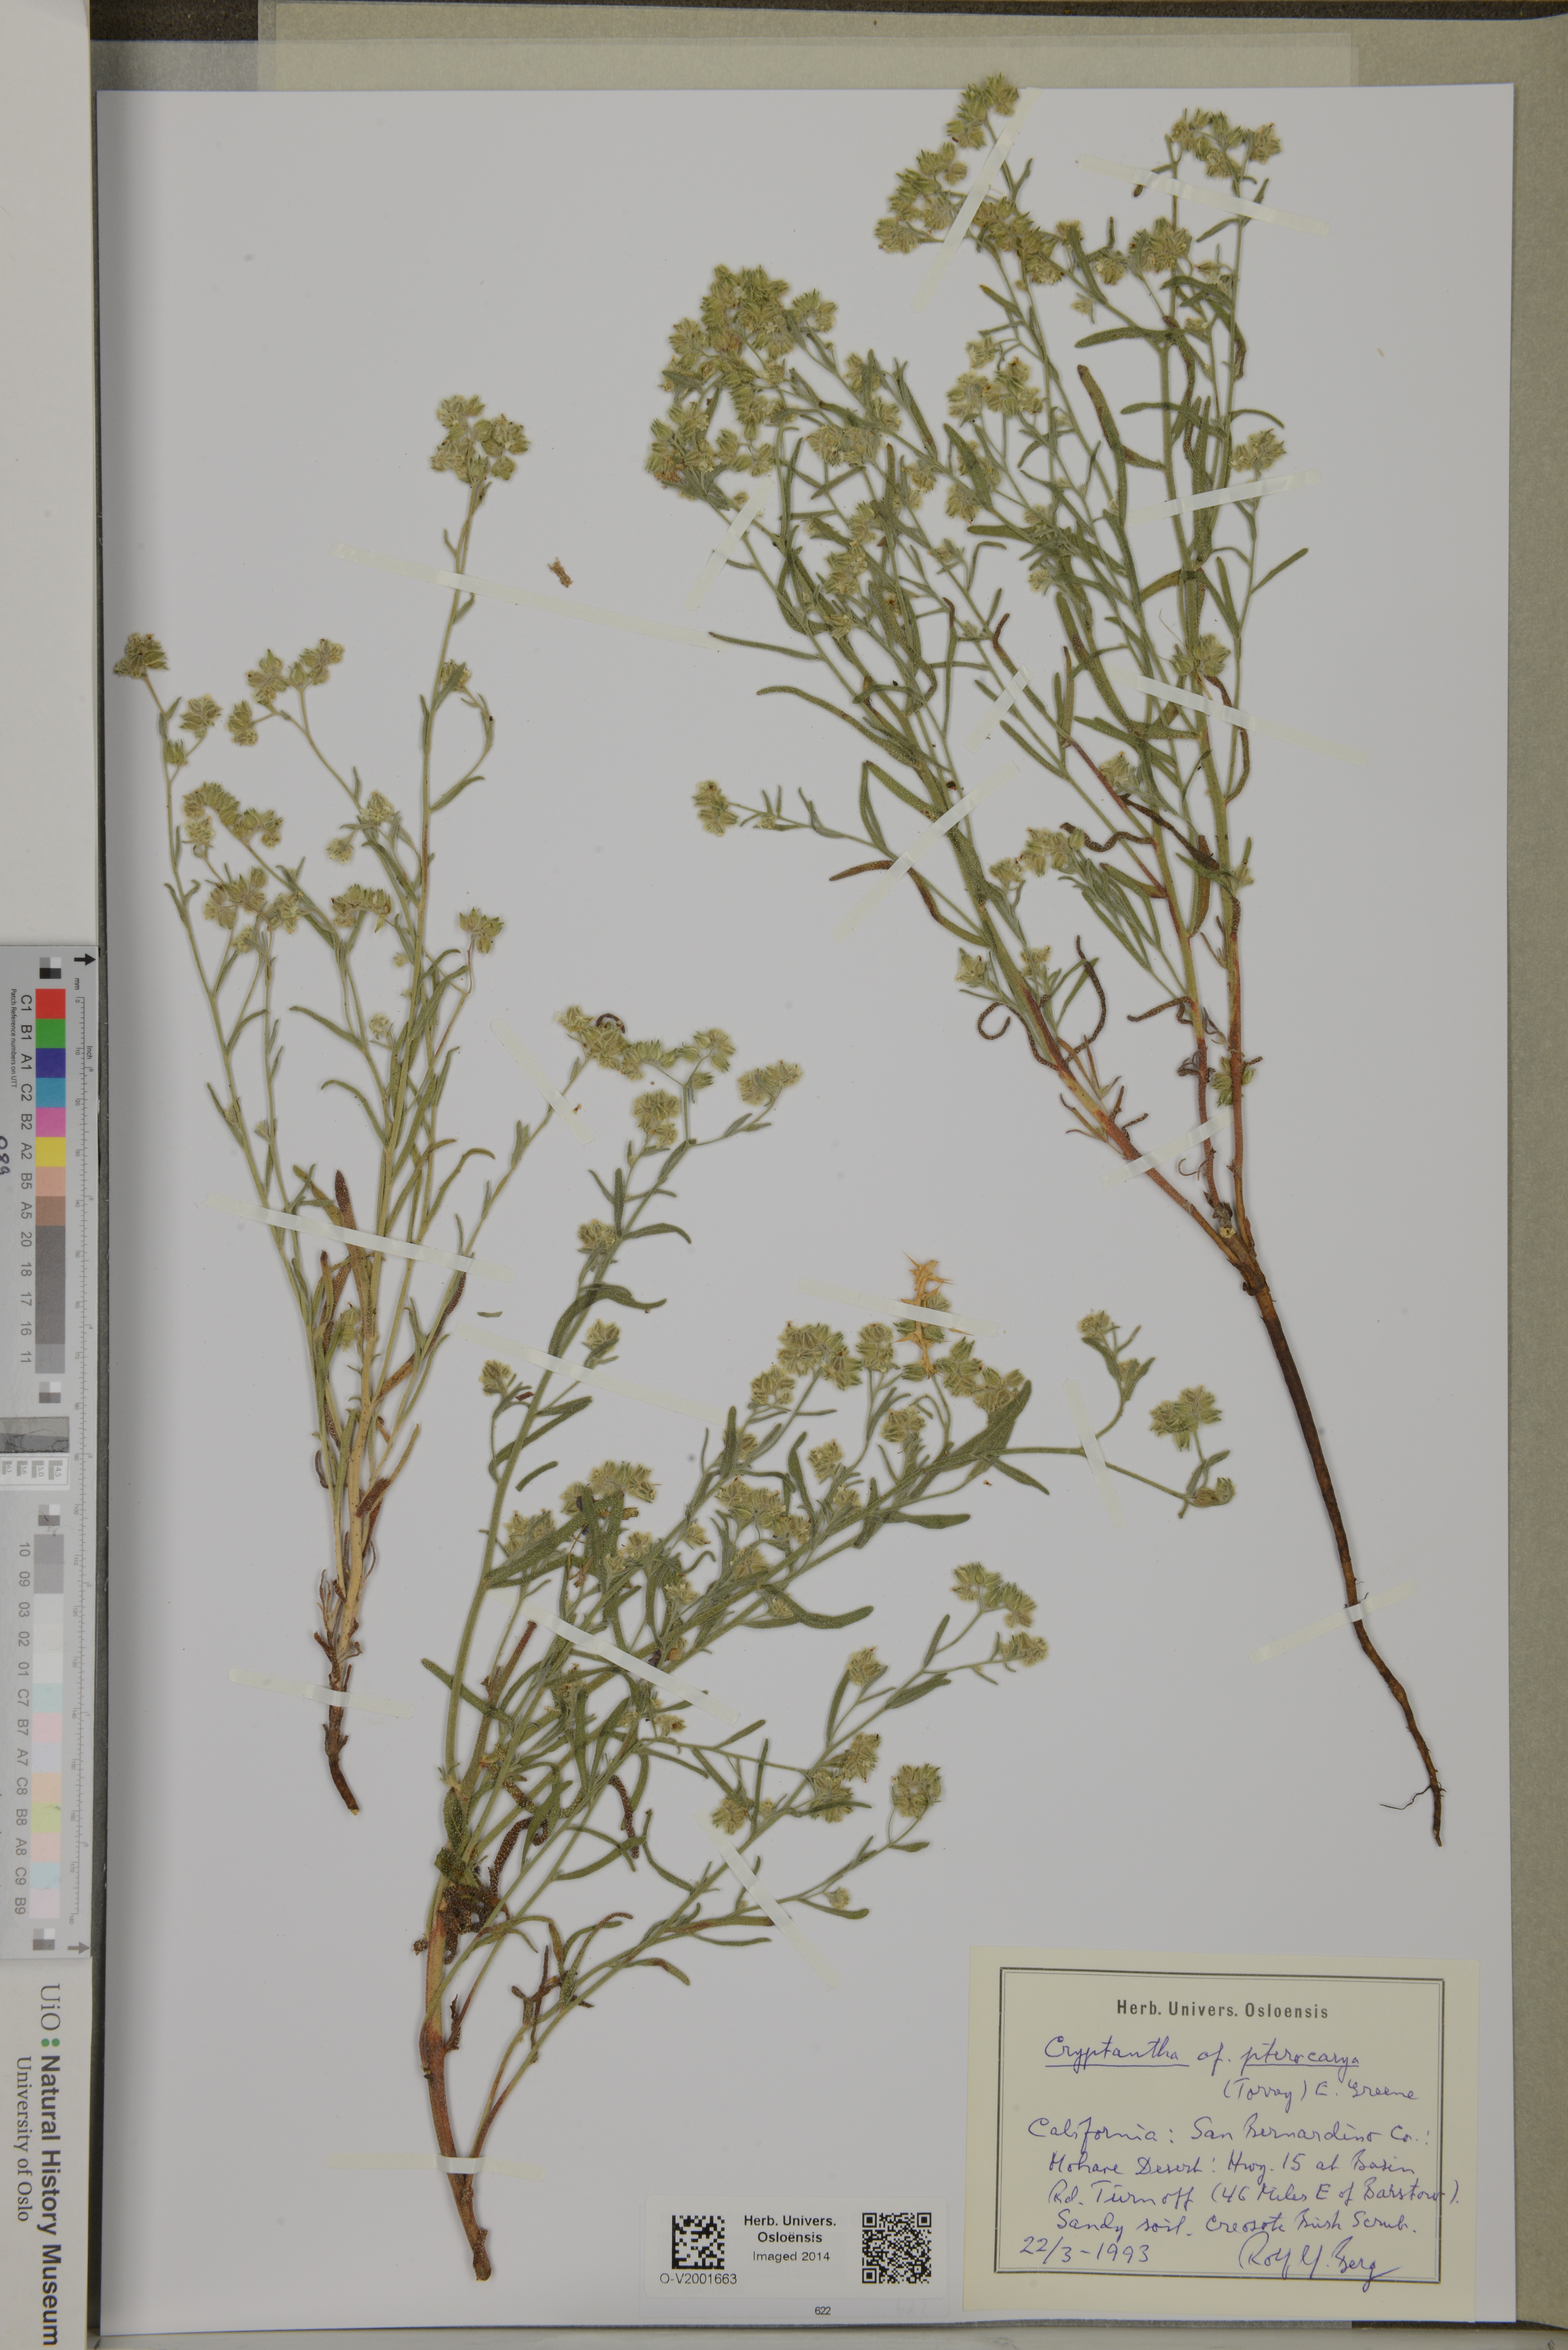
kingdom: Plantae
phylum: Tracheophyta
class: Magnoliopsida
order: Boraginales
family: Boraginaceae
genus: Cryptantha
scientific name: Cryptantha pterocarya
